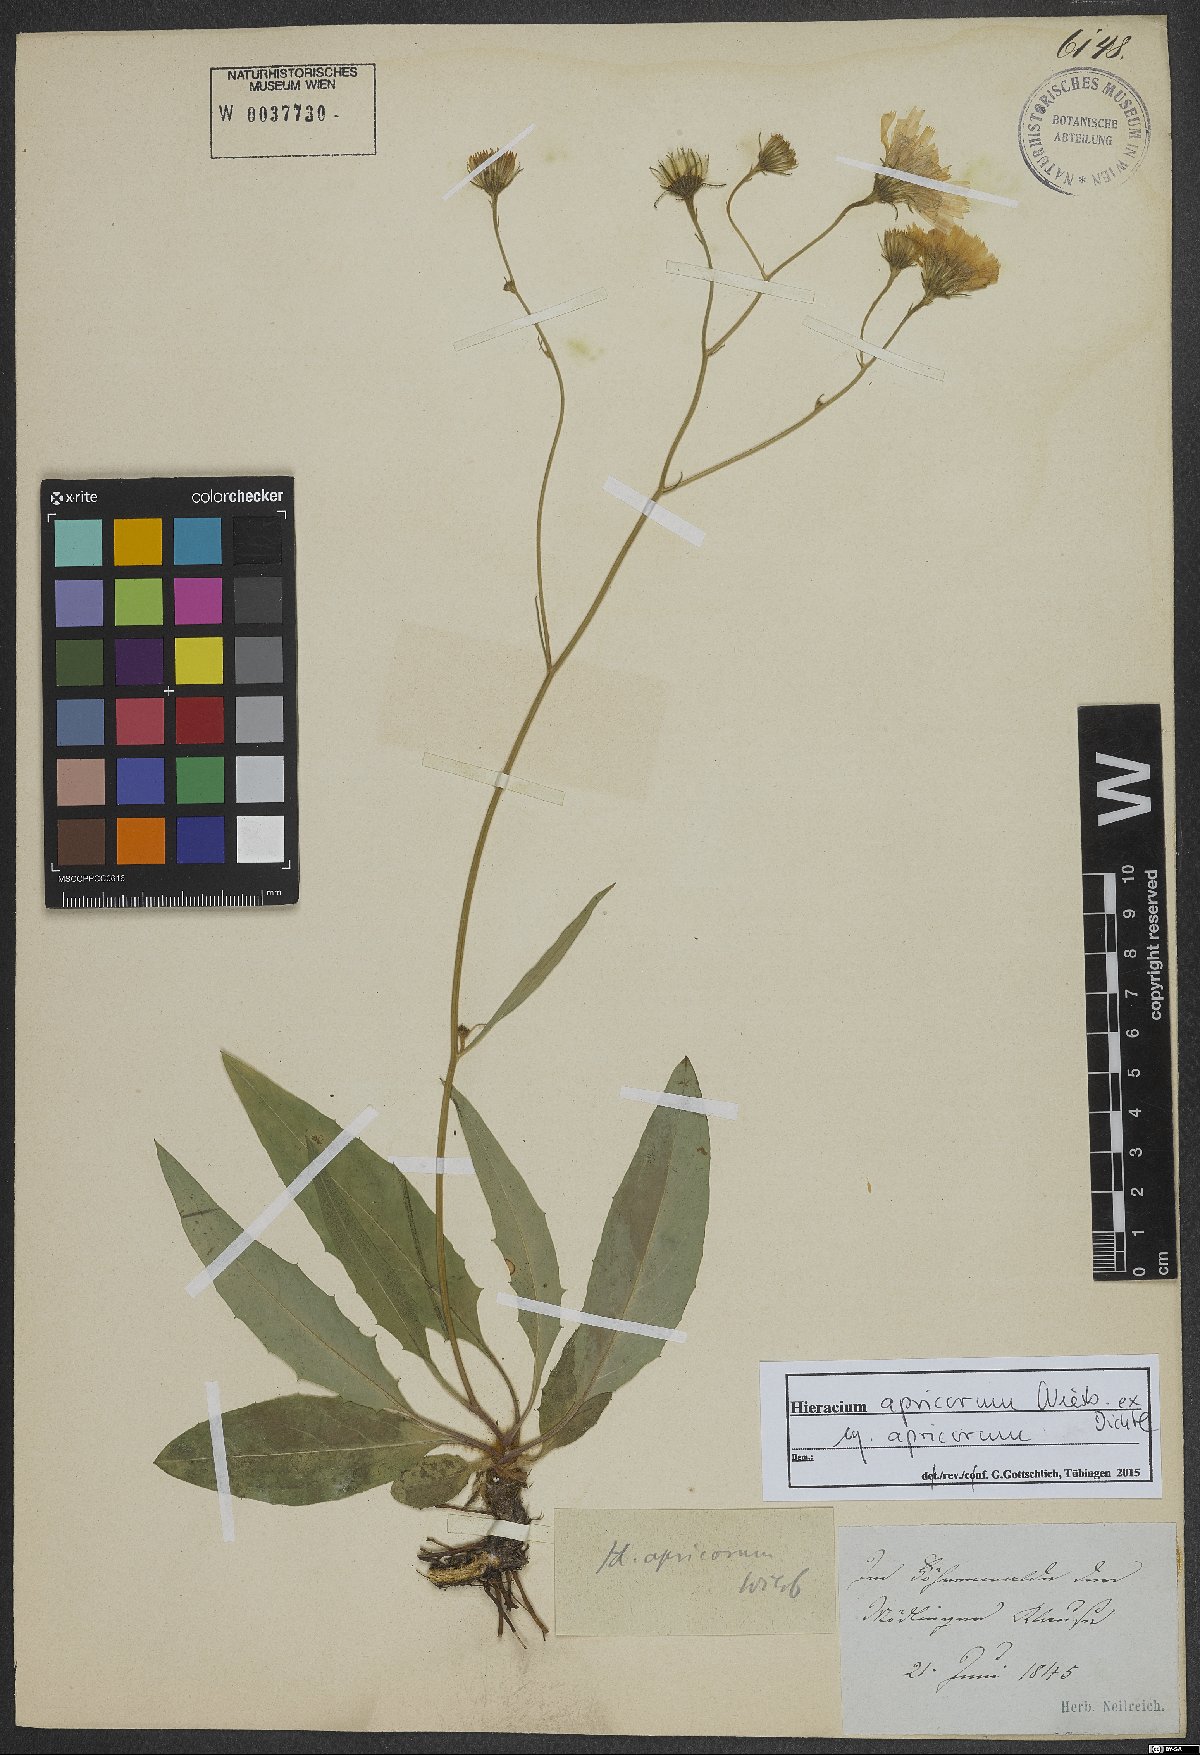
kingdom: Plantae
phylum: Tracheophyta
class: Magnoliopsida
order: Asterales
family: Asteraceae
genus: Hieracium
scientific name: Hieracium apricorum
